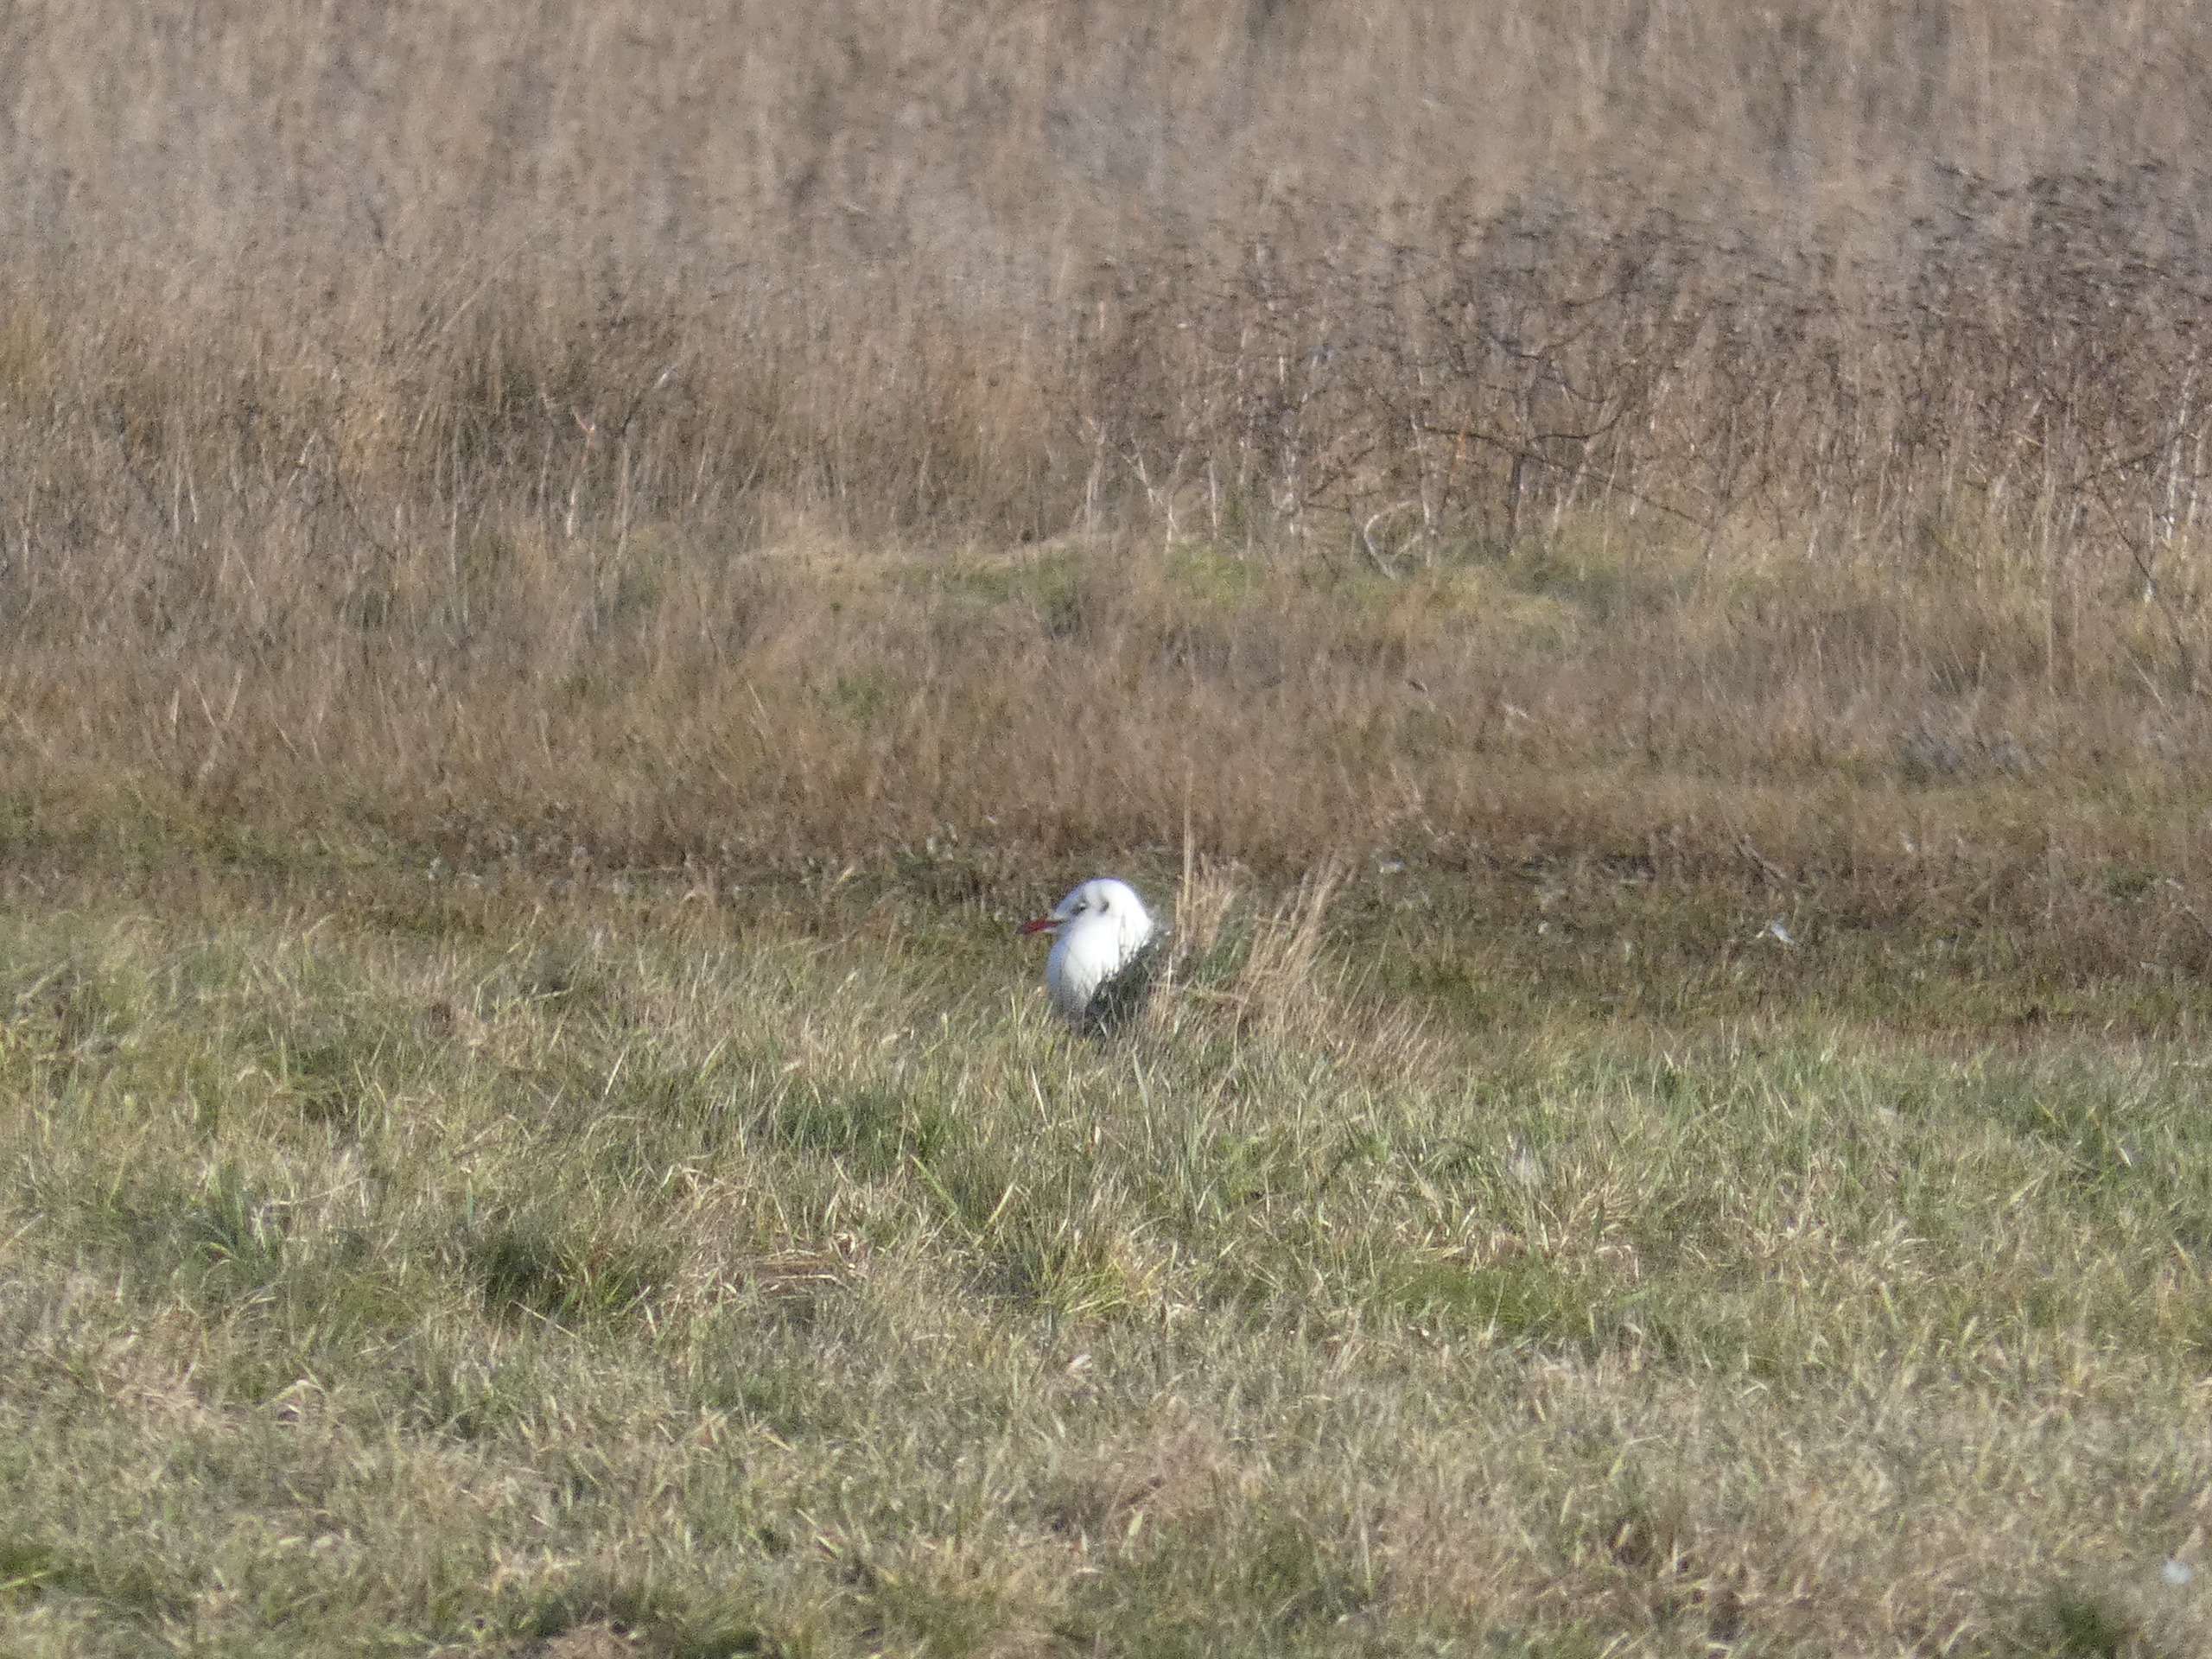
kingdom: Animalia
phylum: Chordata
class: Aves
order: Charadriiformes
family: Laridae
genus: Chroicocephalus
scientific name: Chroicocephalus ridibundus
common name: Hættemåge
